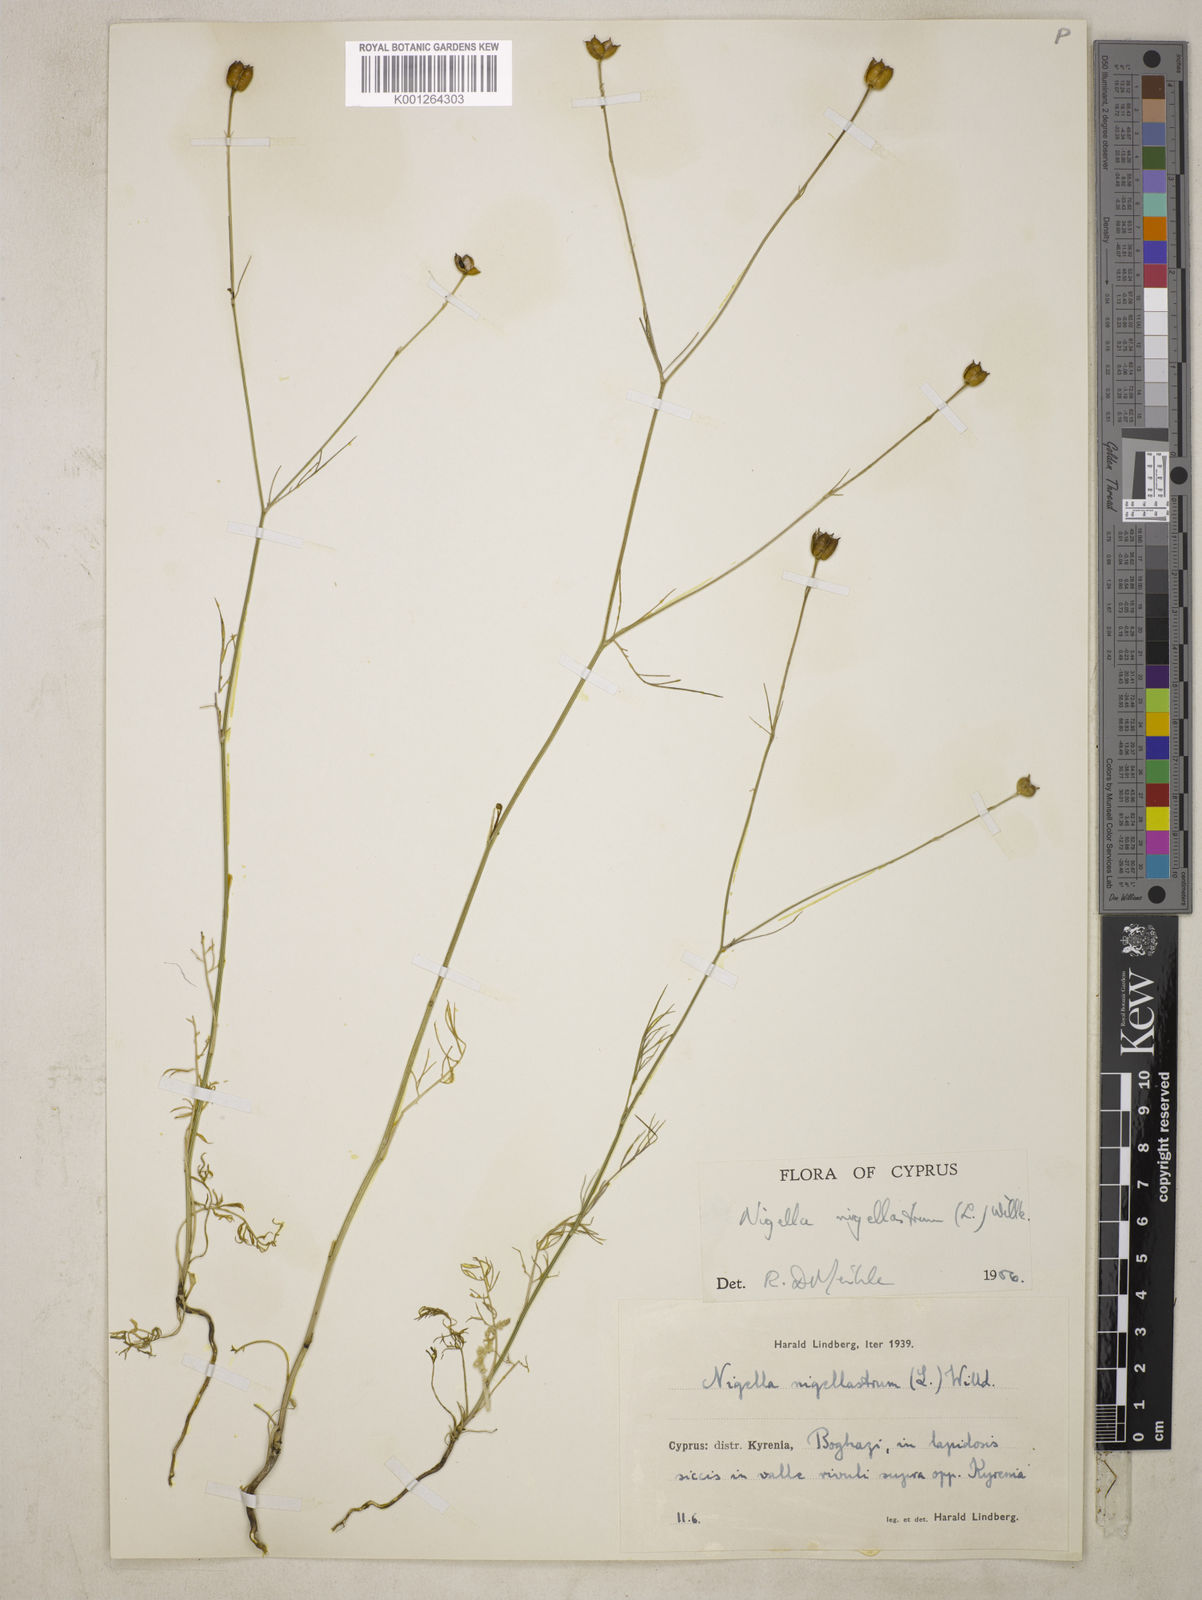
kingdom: Plantae
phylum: Tracheophyta
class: Magnoliopsida
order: Ranunculales
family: Ranunculaceae
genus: Garidella
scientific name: Garidella nigellastrum
